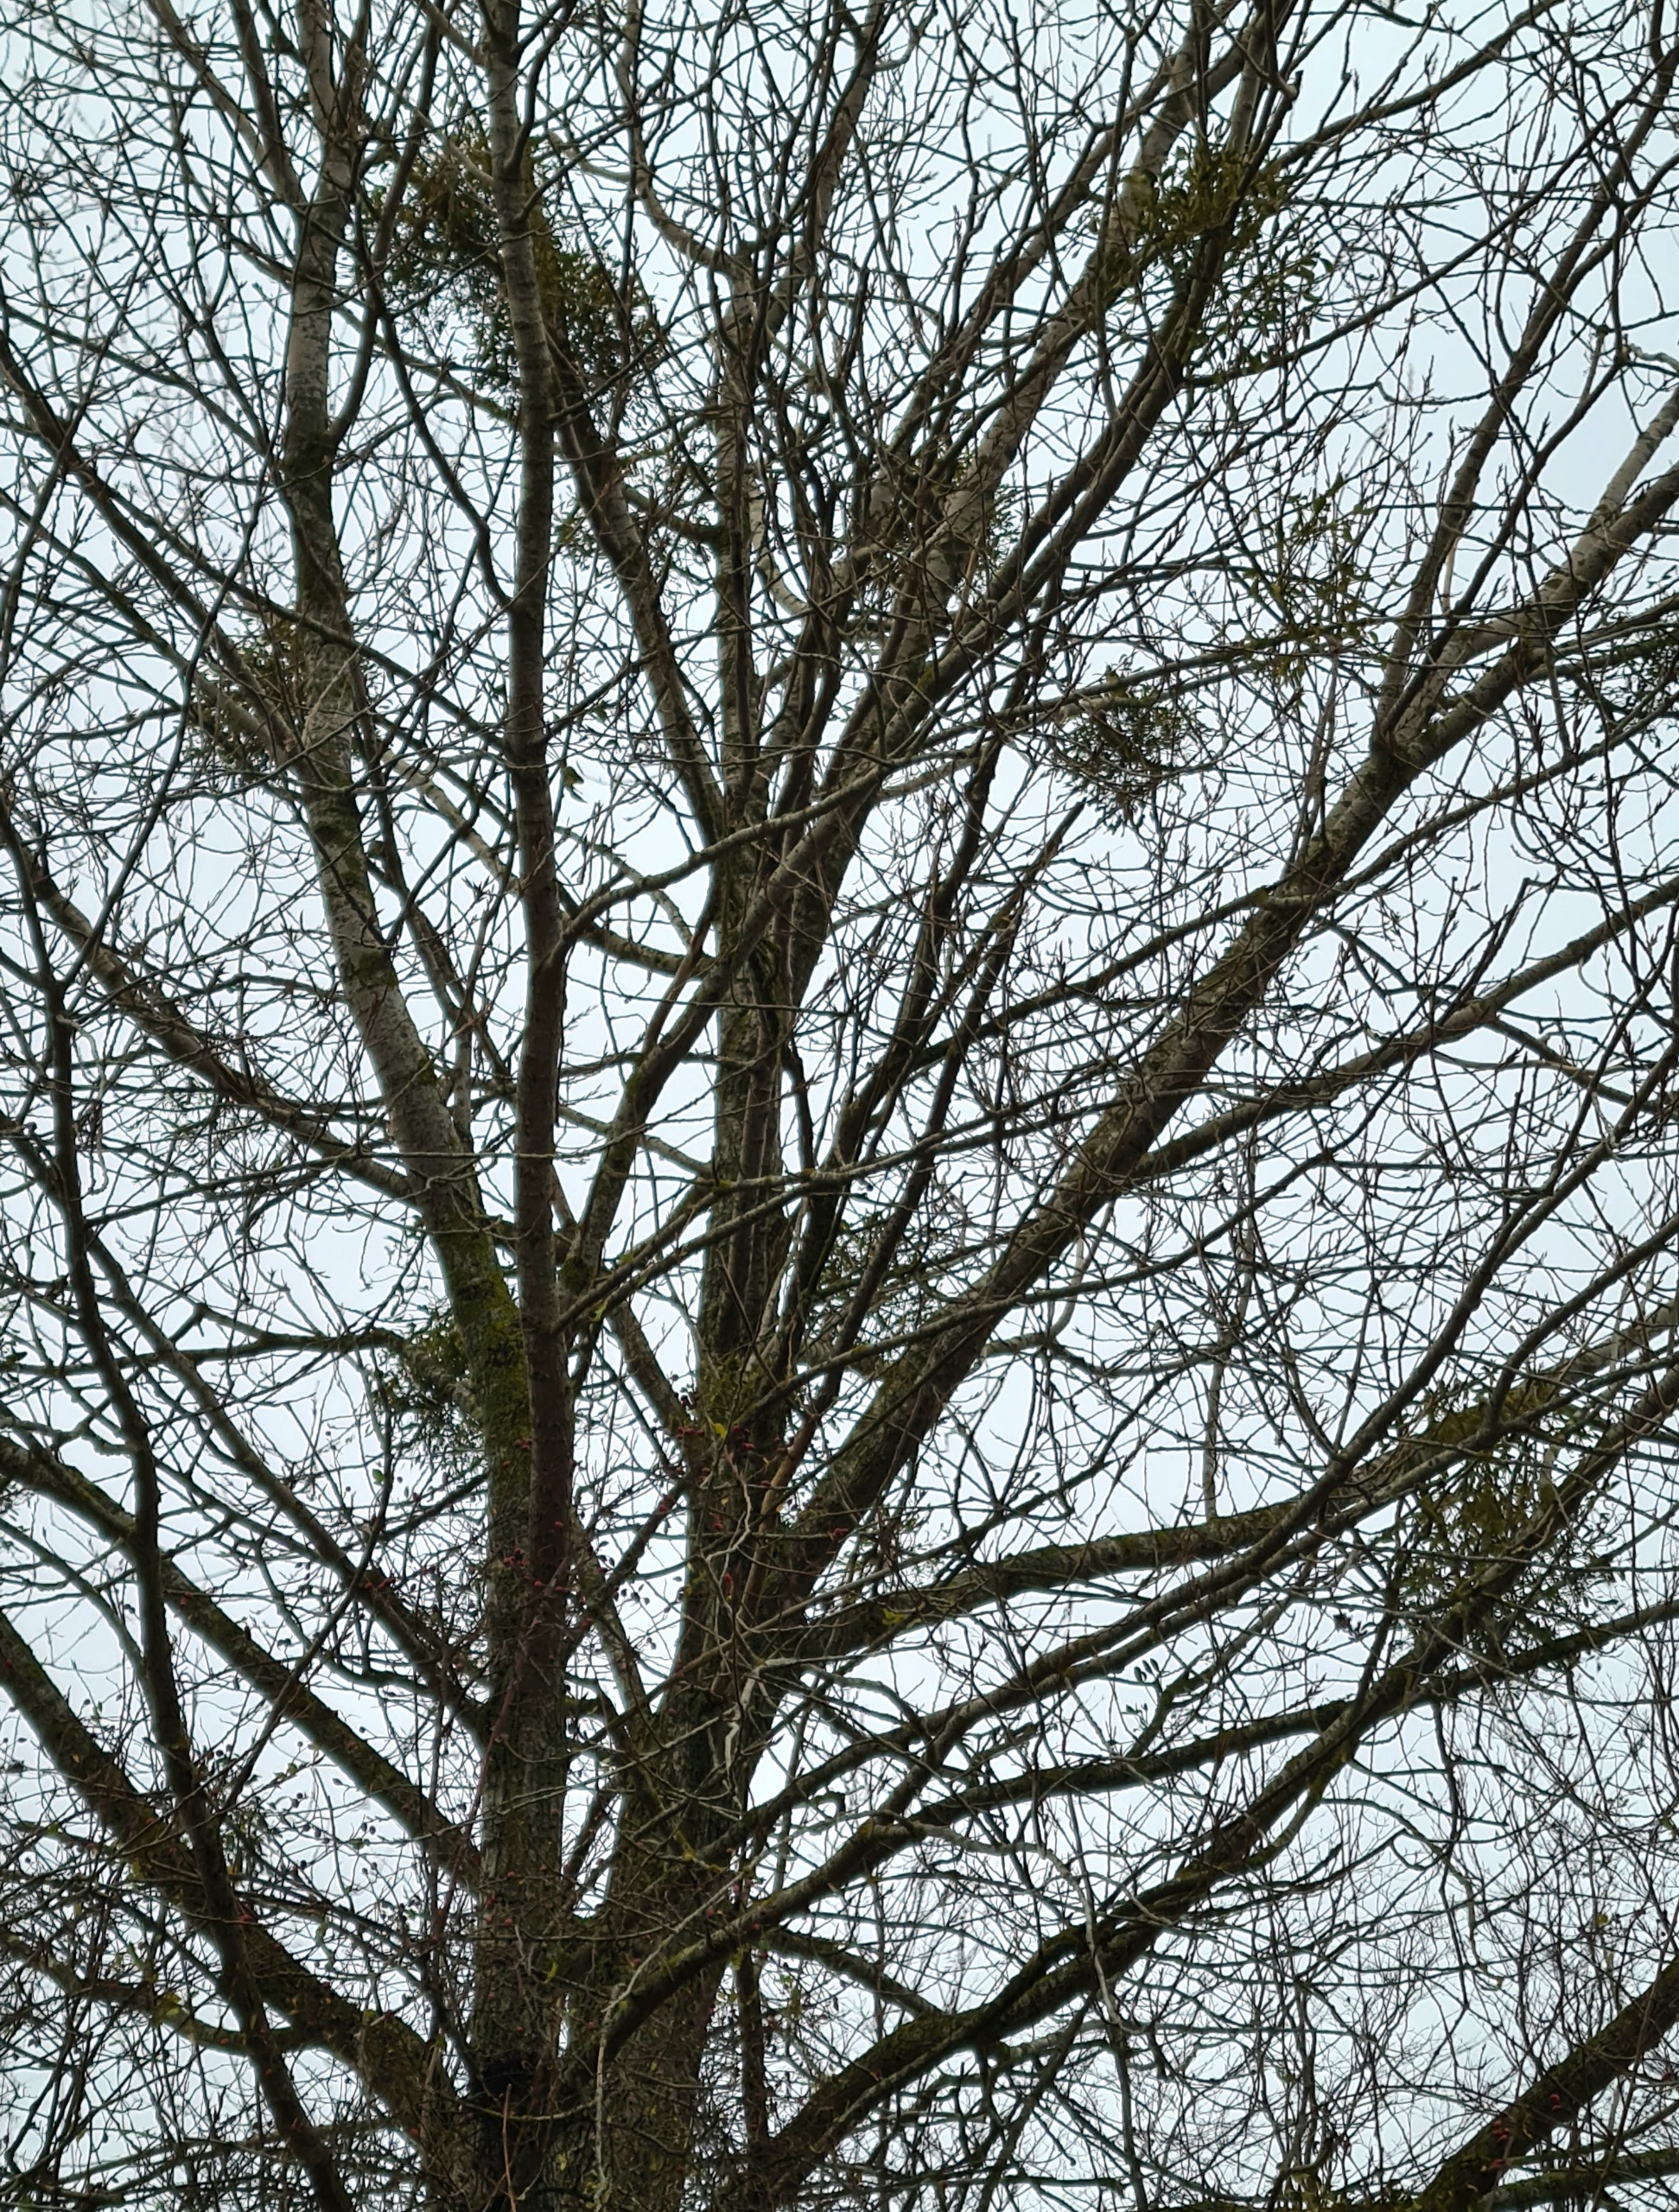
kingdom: Plantae
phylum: Tracheophyta
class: Magnoliopsida
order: Santalales
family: Viscaceae
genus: Viscum
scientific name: Viscum album
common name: Mistelten
